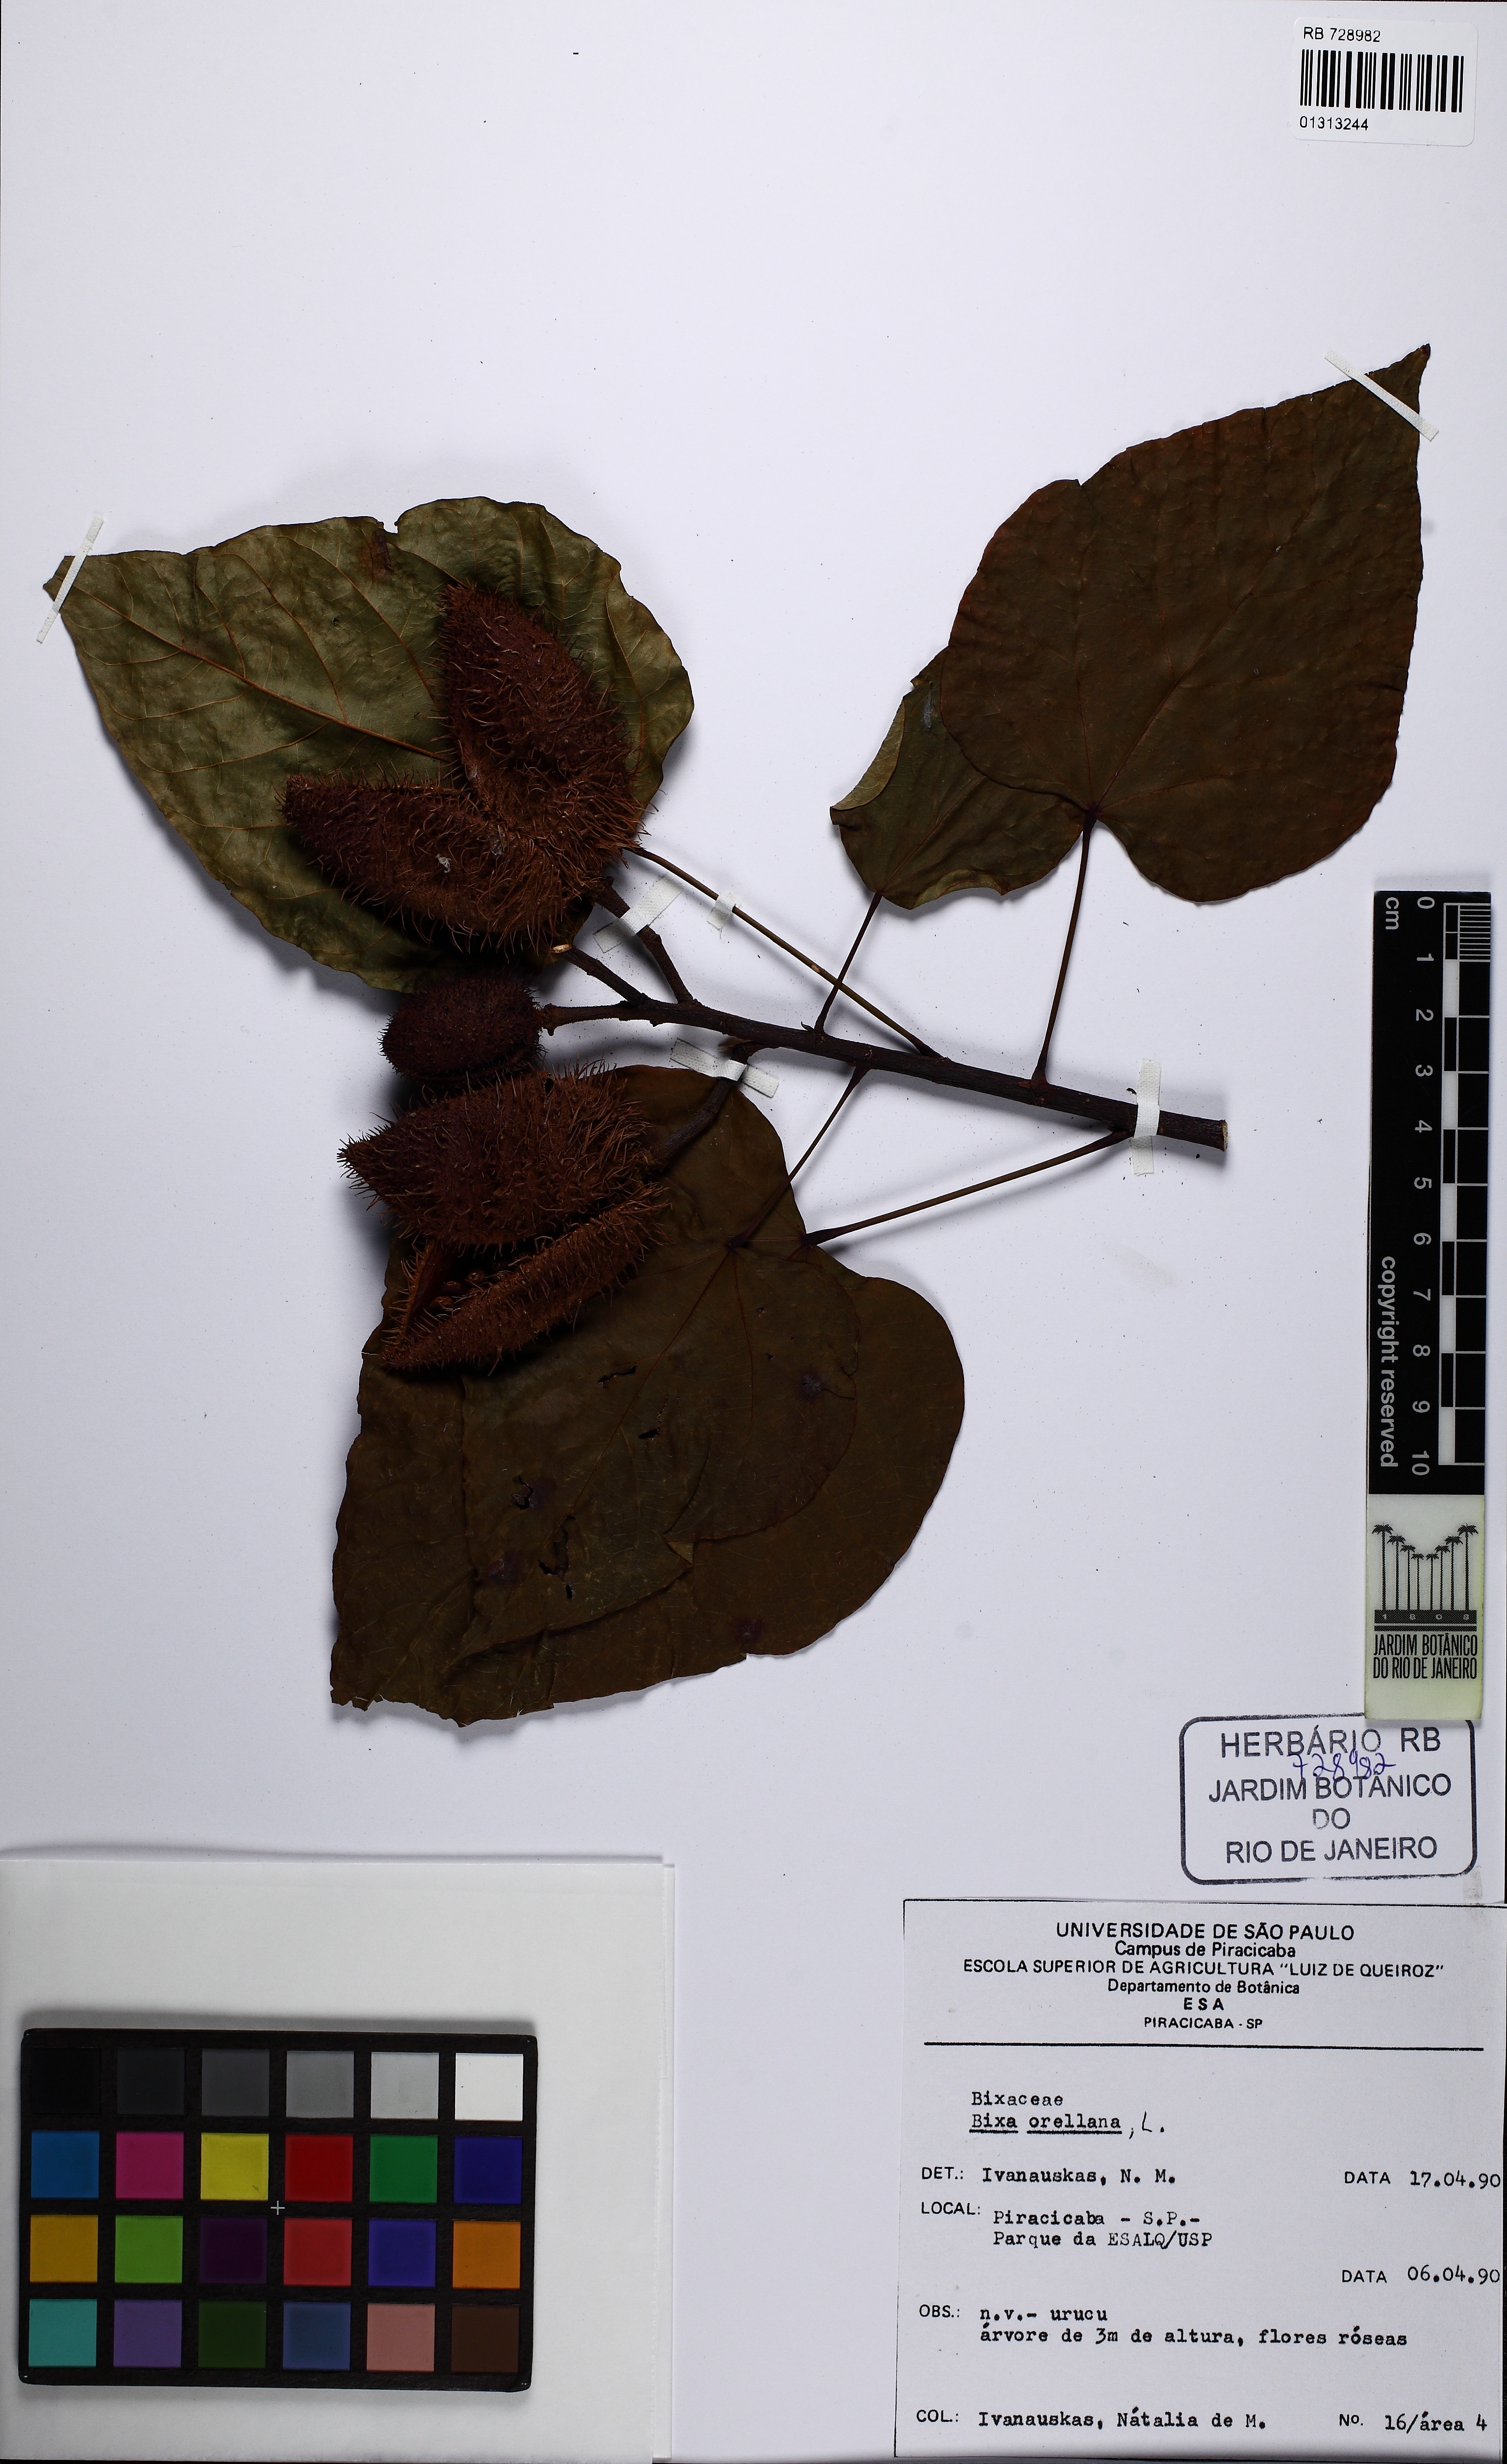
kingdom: Plantae
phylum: Tracheophyta
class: Magnoliopsida
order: Malvales
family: Bixaceae
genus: Bixa
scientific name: Bixa orellana
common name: Lipsticktree
